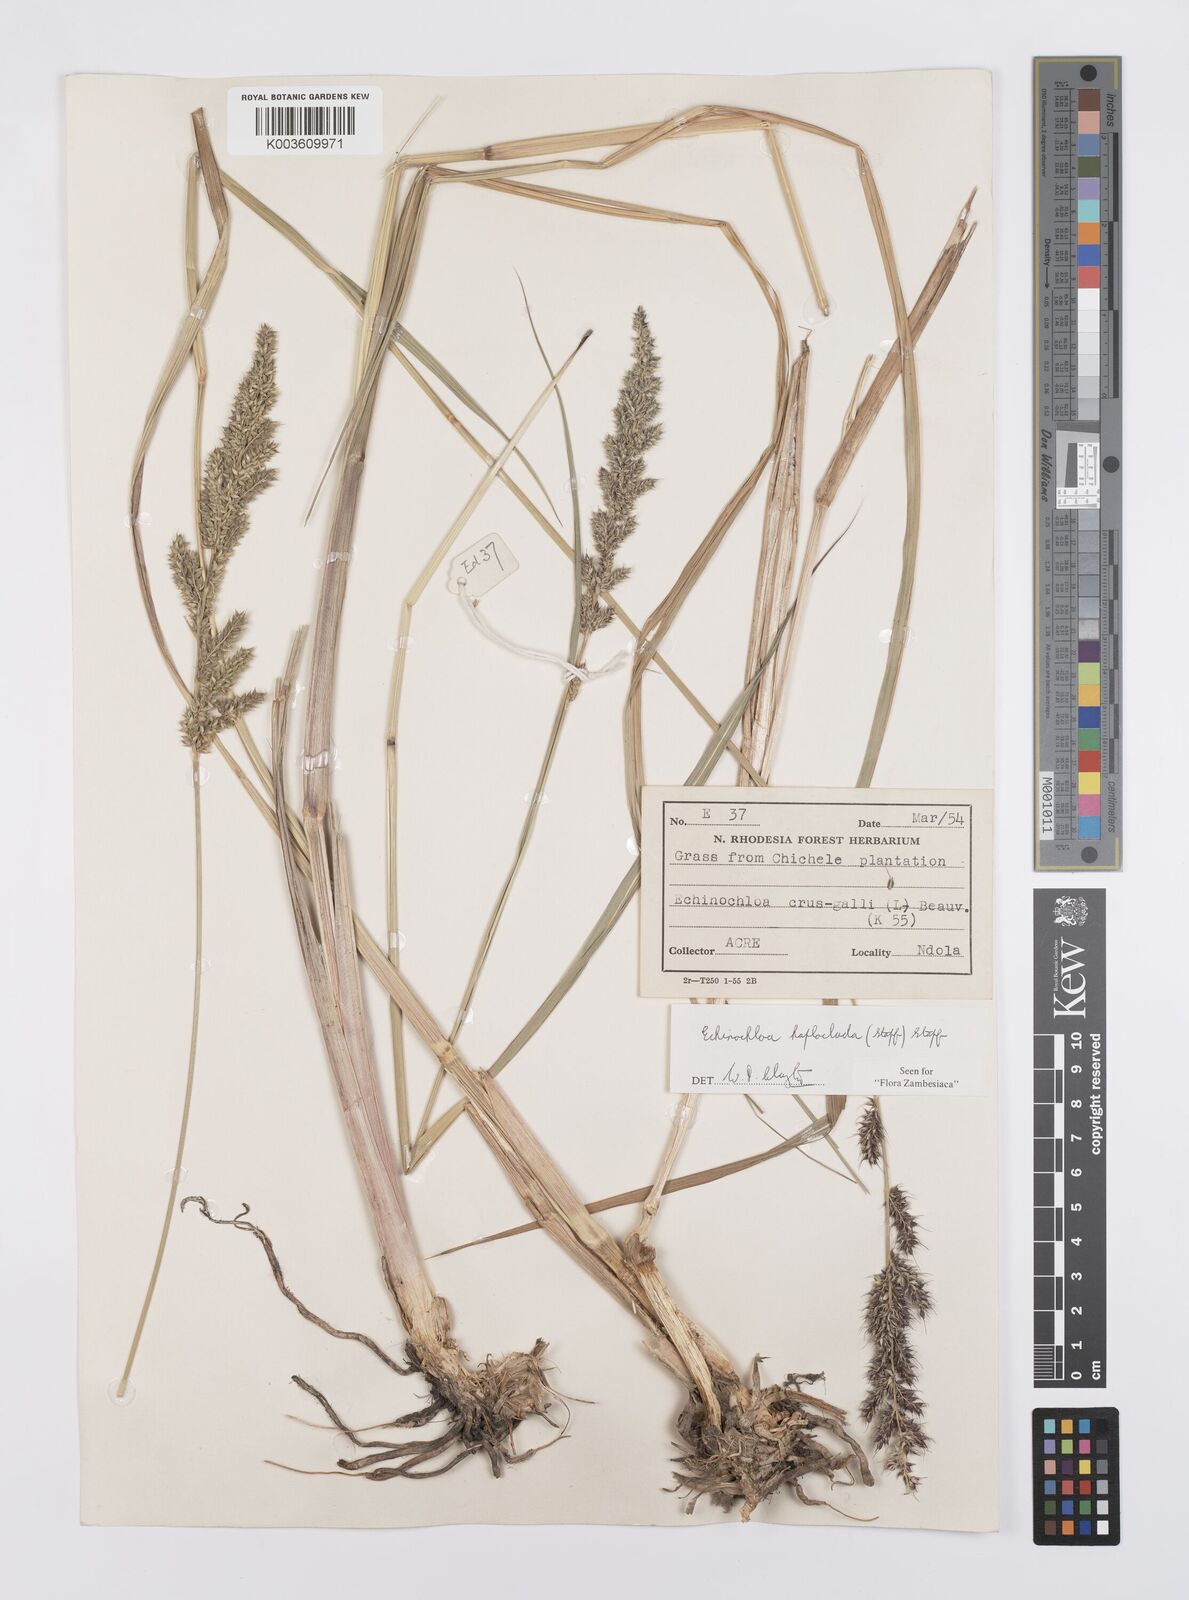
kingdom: Plantae
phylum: Tracheophyta
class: Liliopsida
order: Poales
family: Poaceae
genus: Echinochloa
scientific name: Echinochloa haploclada
